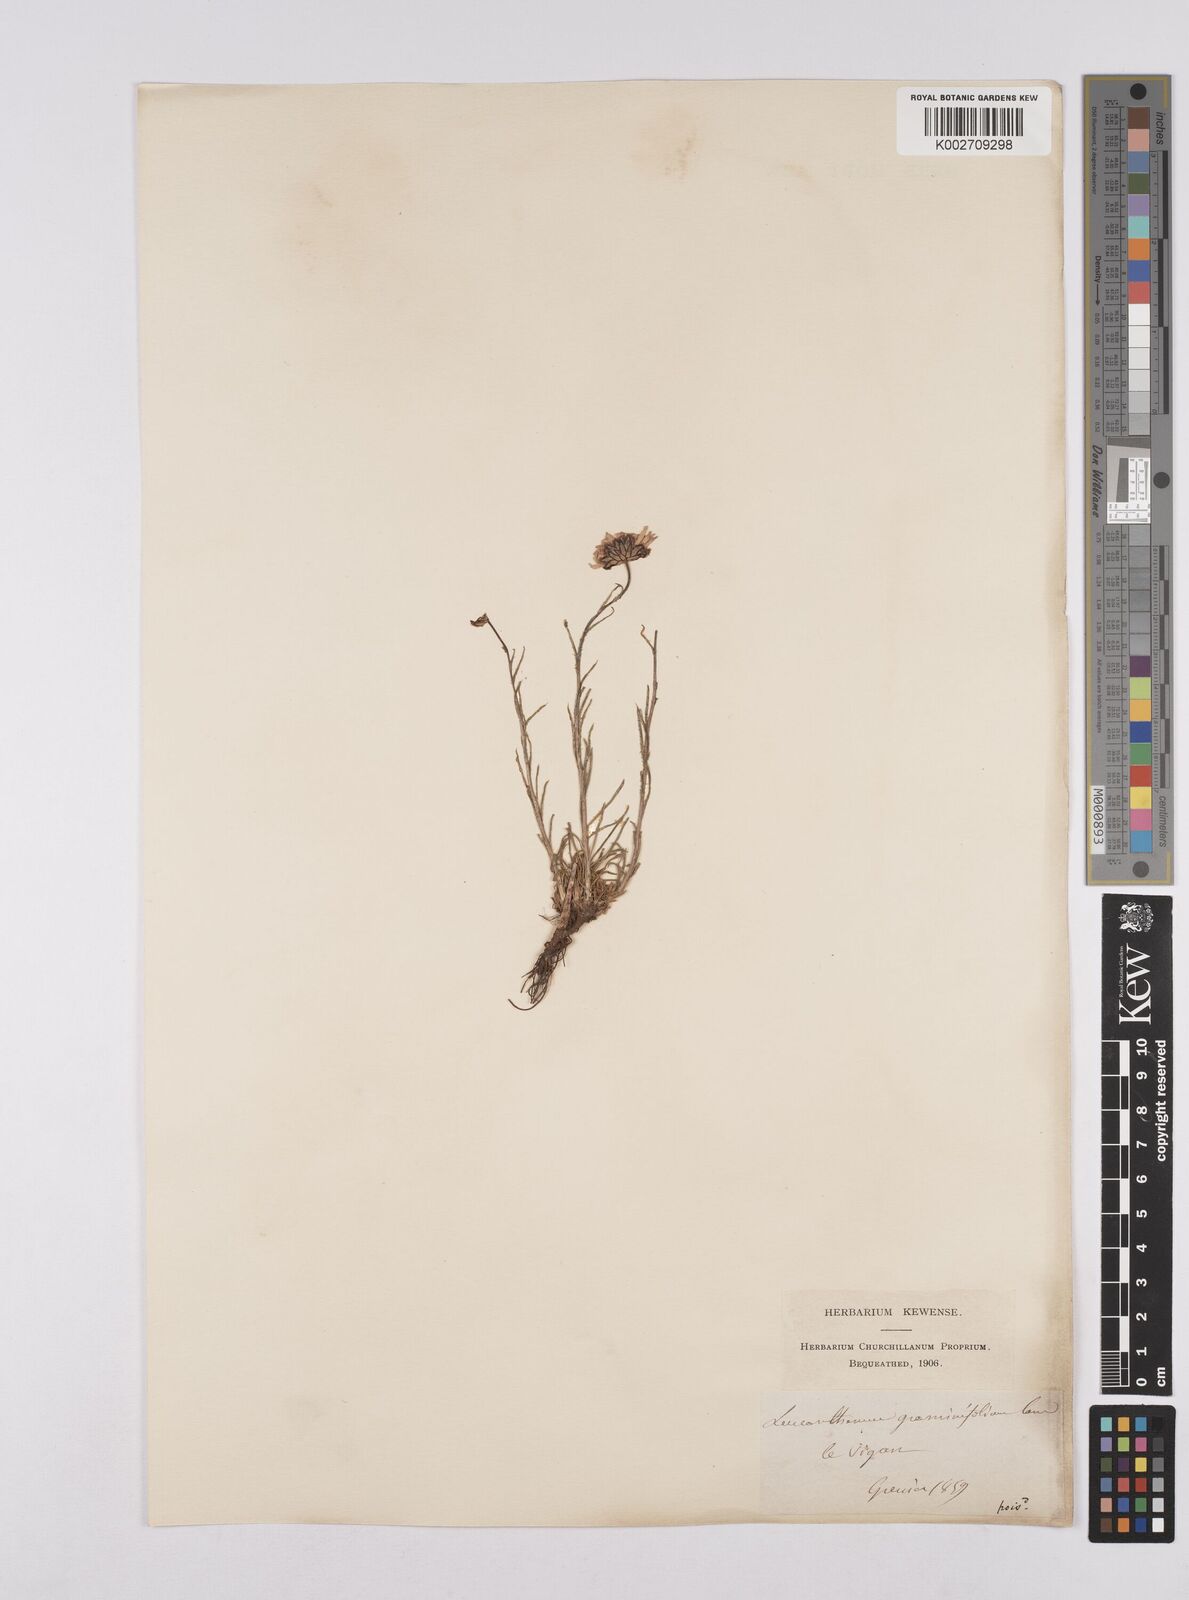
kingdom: Plantae
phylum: Tracheophyta
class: Magnoliopsida
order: Asterales
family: Asteraceae
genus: Leucanthemum
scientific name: Leucanthemum chloroticum
